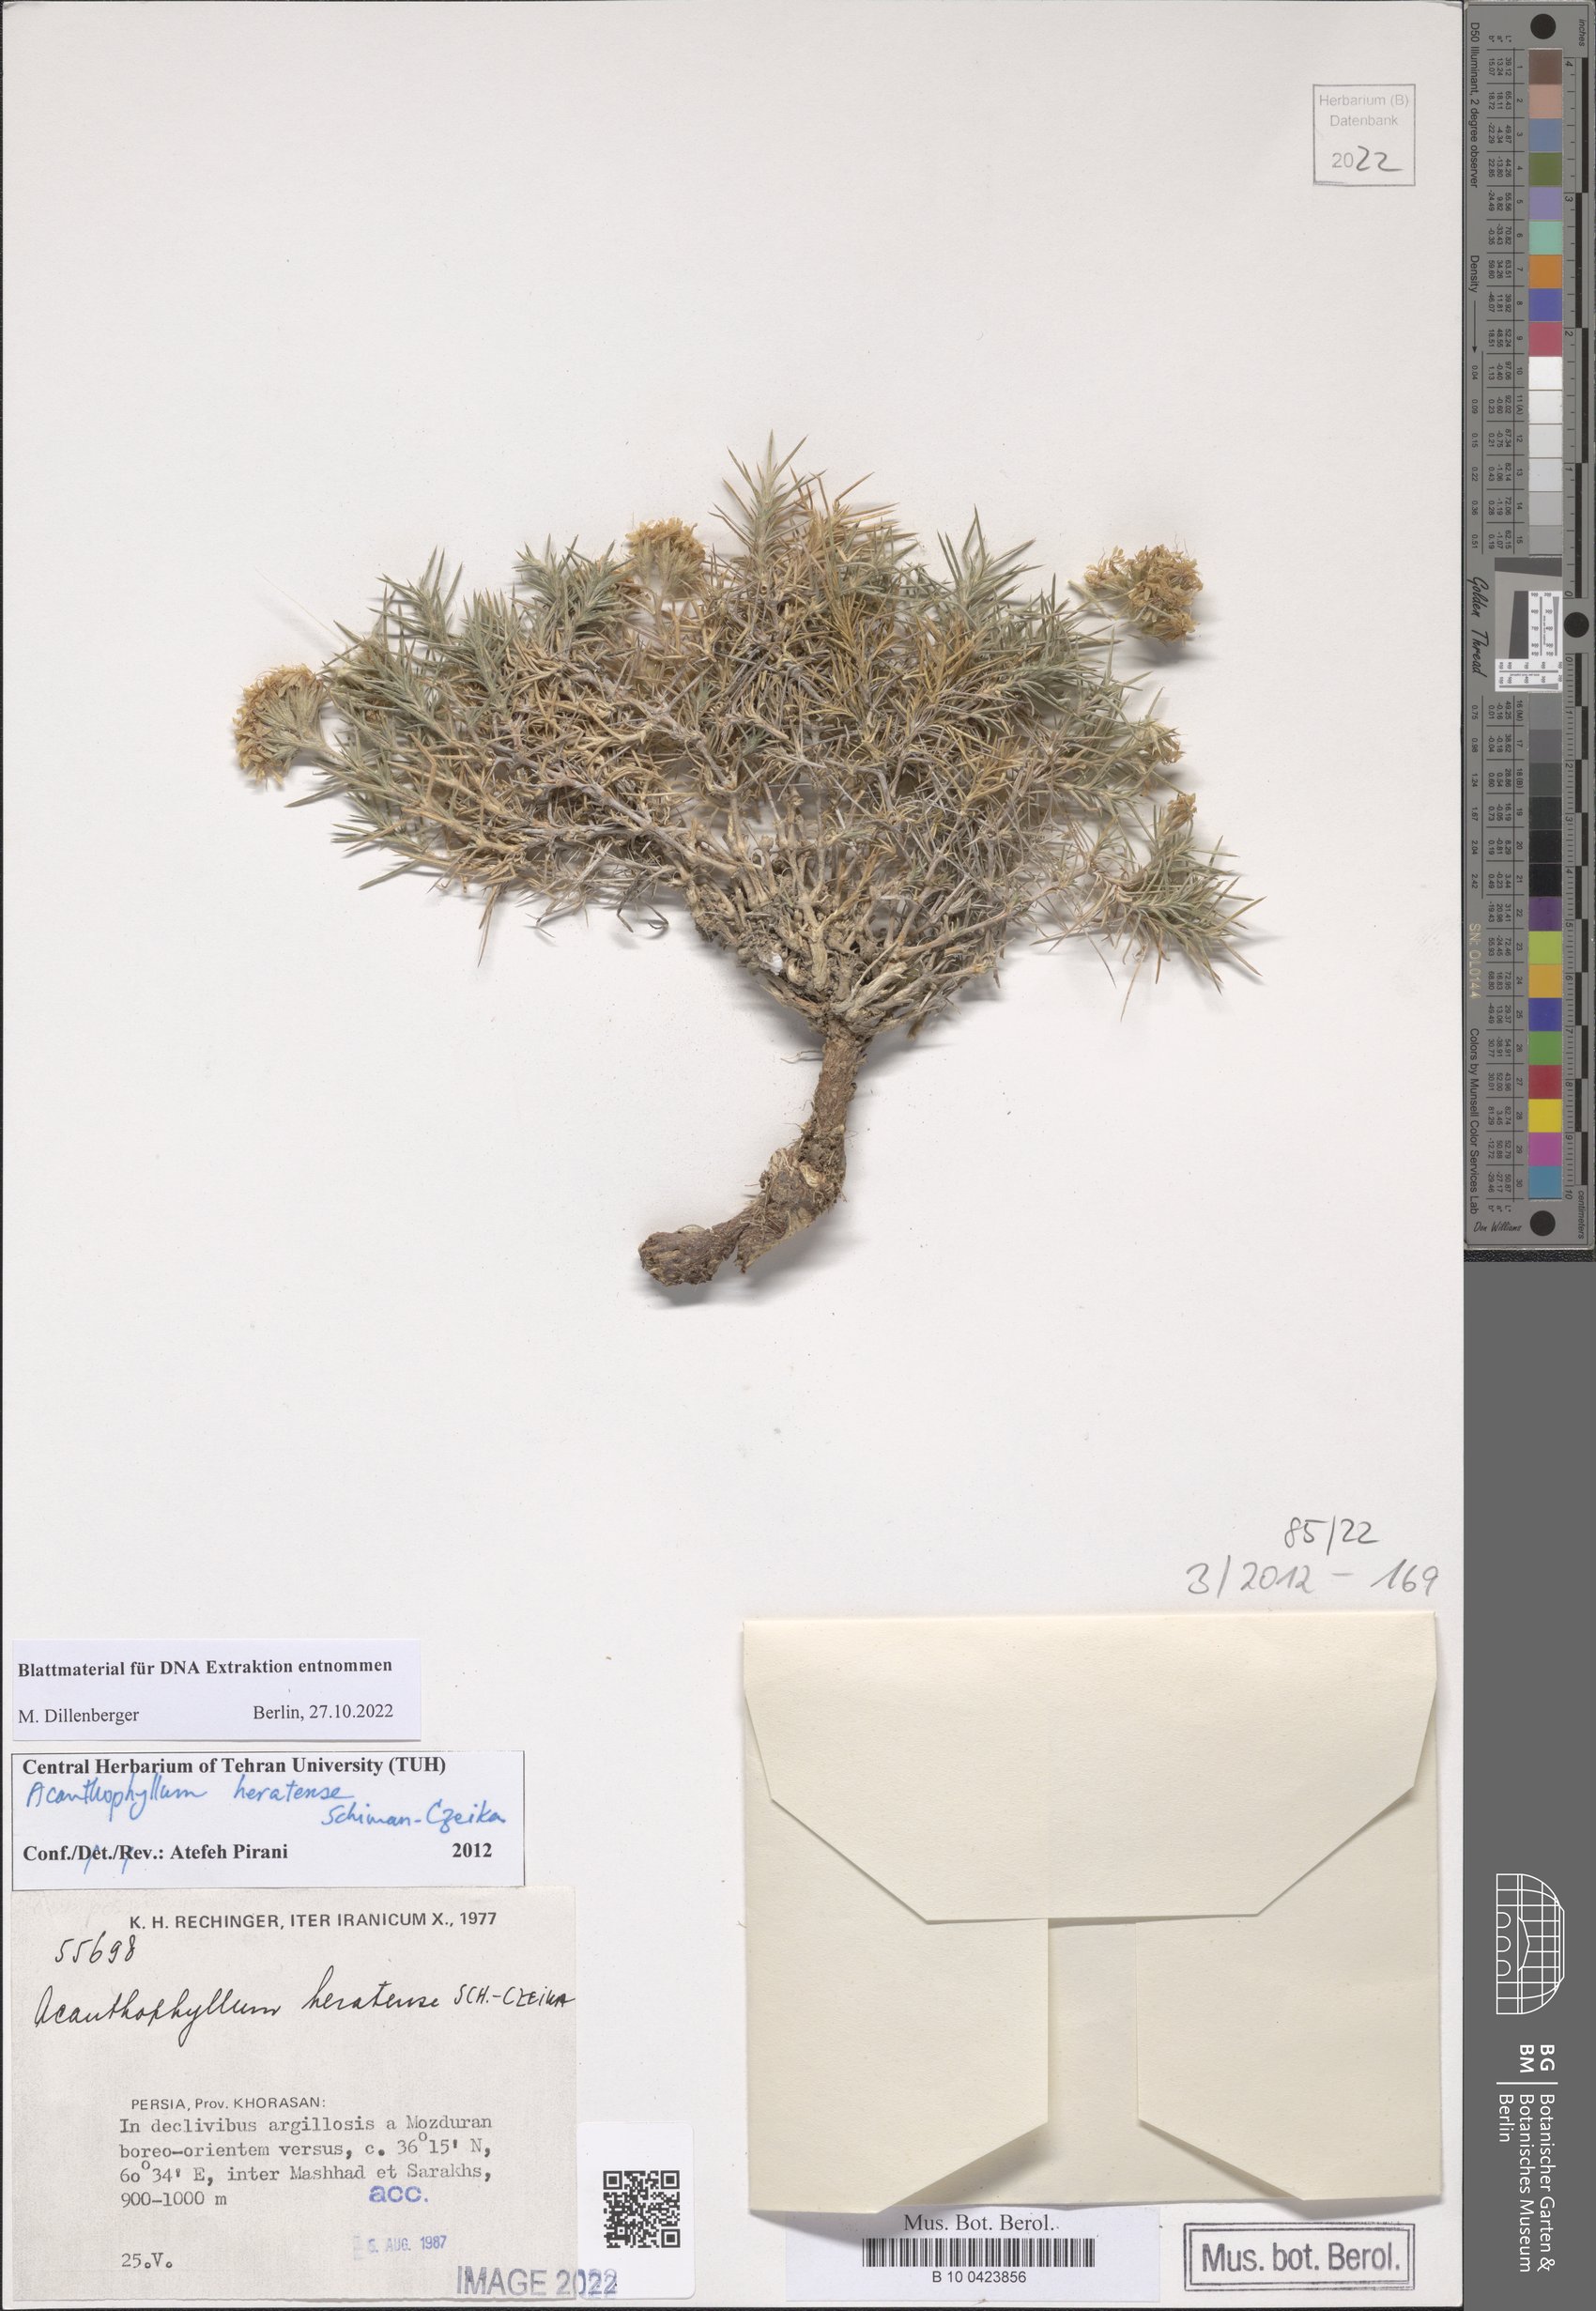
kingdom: Plantae
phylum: Tracheophyta
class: Magnoliopsida
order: Caryophyllales
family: Caryophyllaceae
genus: Acanthophyllum
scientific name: Acanthophyllum heratense
